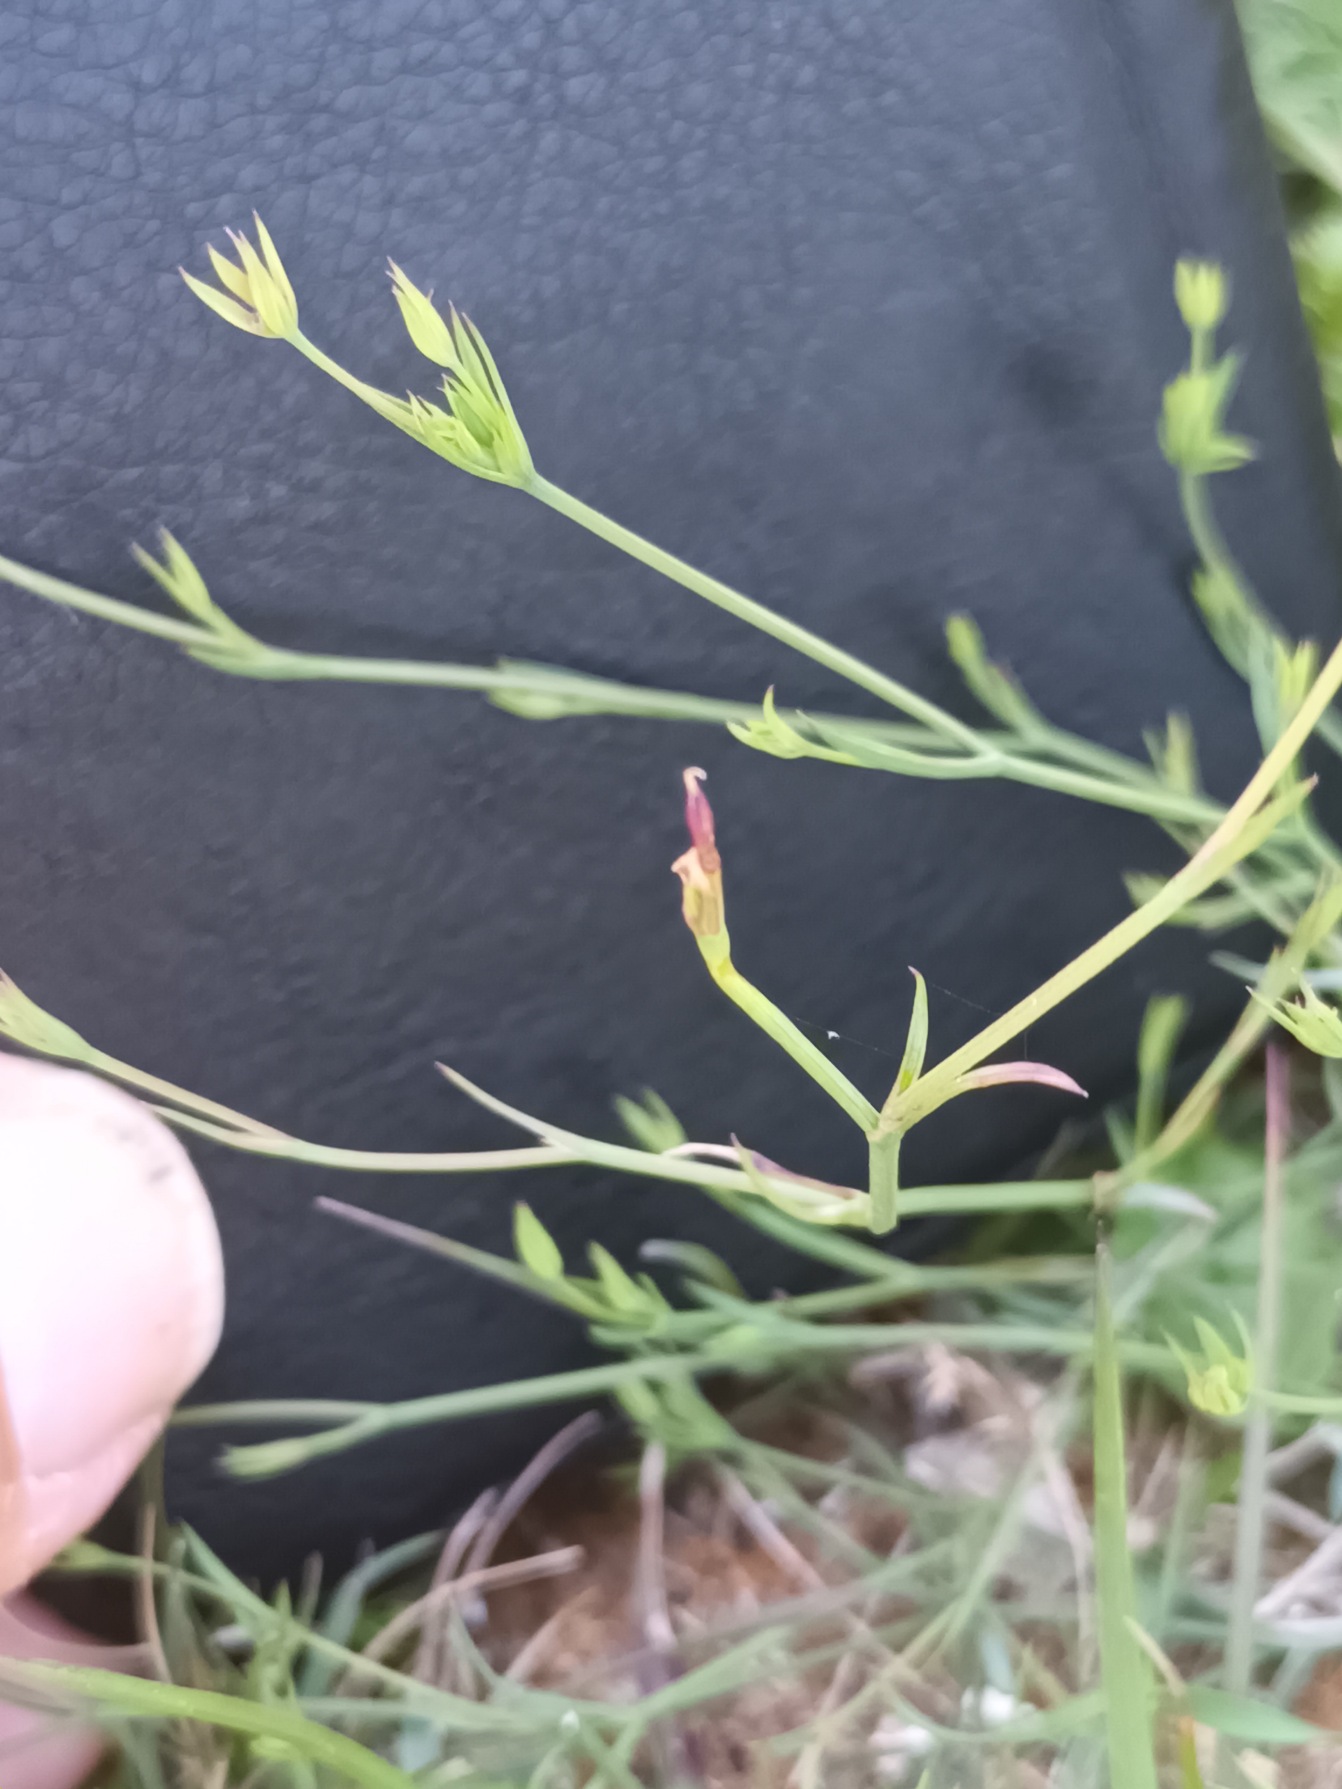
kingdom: Plantae
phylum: Tracheophyta
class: Magnoliopsida
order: Apiales
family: Apiaceae
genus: Bupleurum
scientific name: Bupleurum tenuissimum
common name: Smalbladet hareøre
